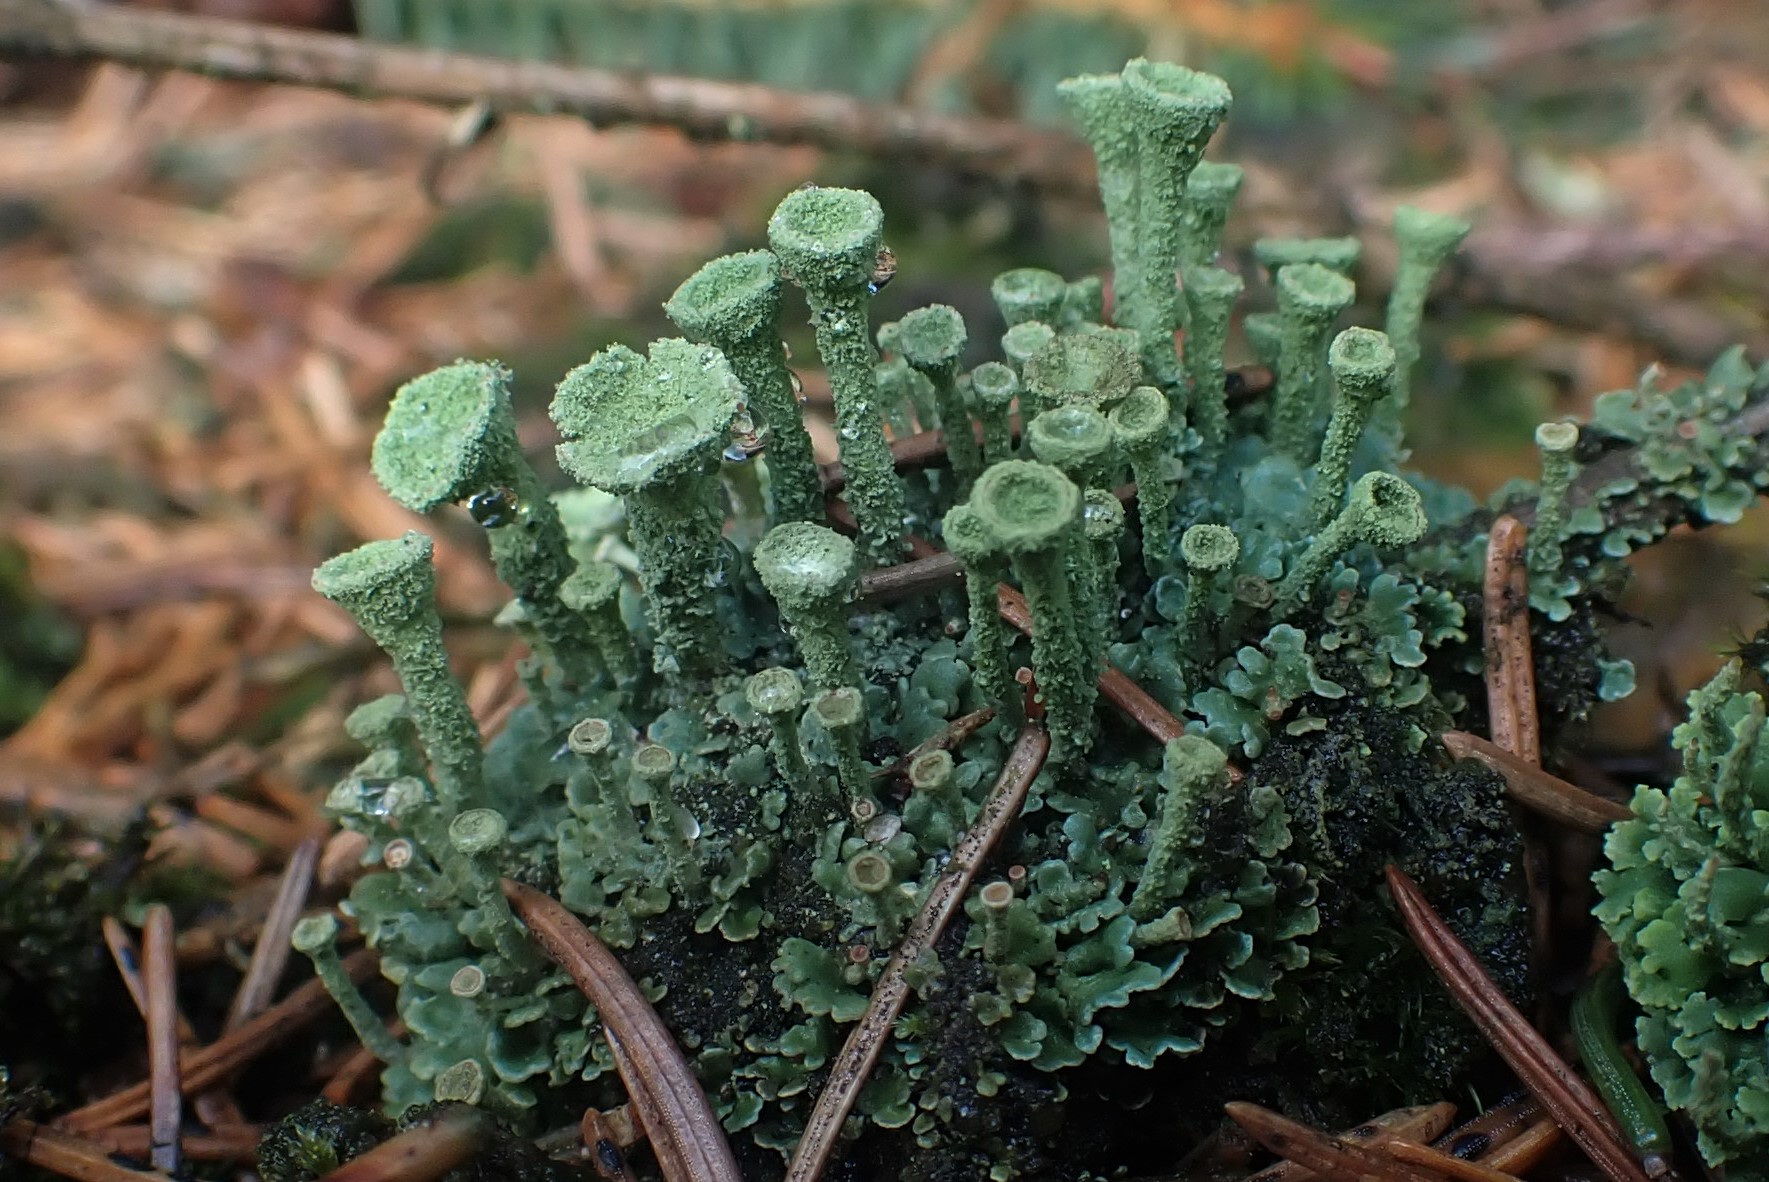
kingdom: Fungi
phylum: Ascomycota
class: Lecanoromycetes
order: Lecanorales
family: Cladoniaceae
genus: Cladonia
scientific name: Cladonia
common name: brungrøn bægerlav
